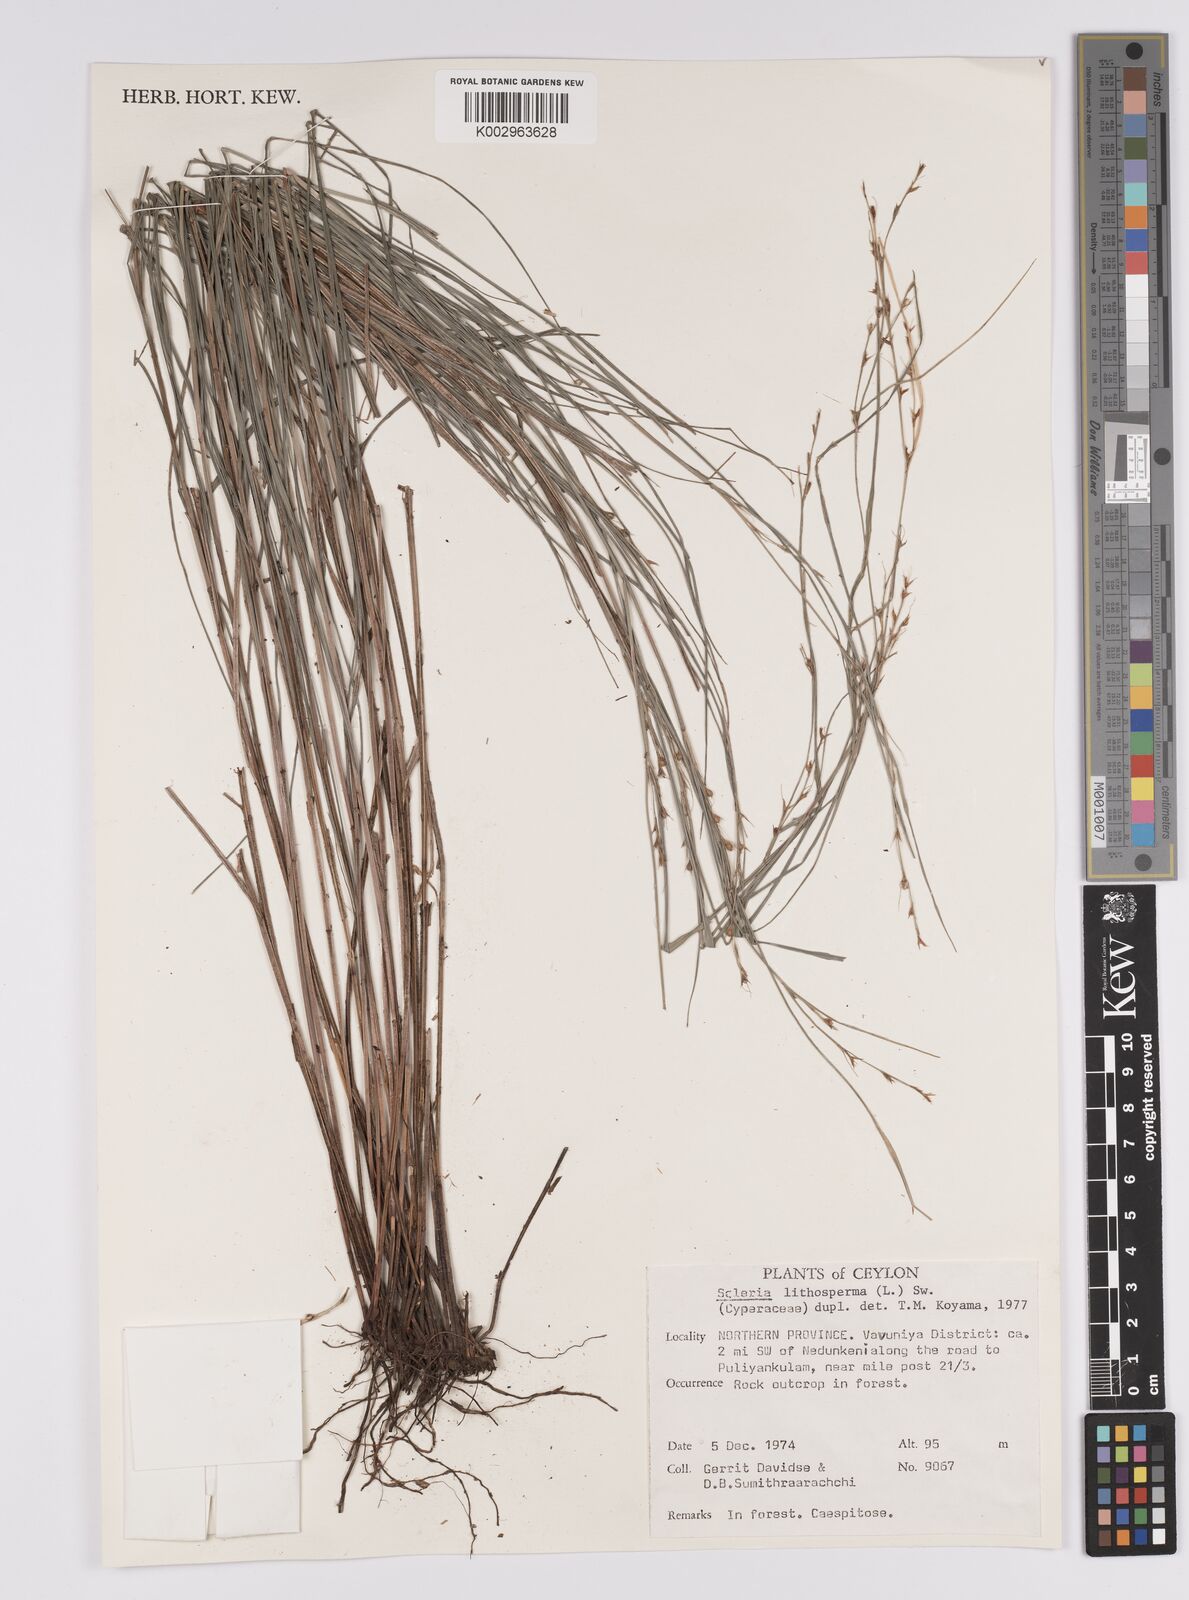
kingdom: Plantae
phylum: Tracheophyta
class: Liliopsida
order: Poales
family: Cyperaceae
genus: Scleria
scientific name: Scleria lithosperma
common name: Florida keys nut-rush
